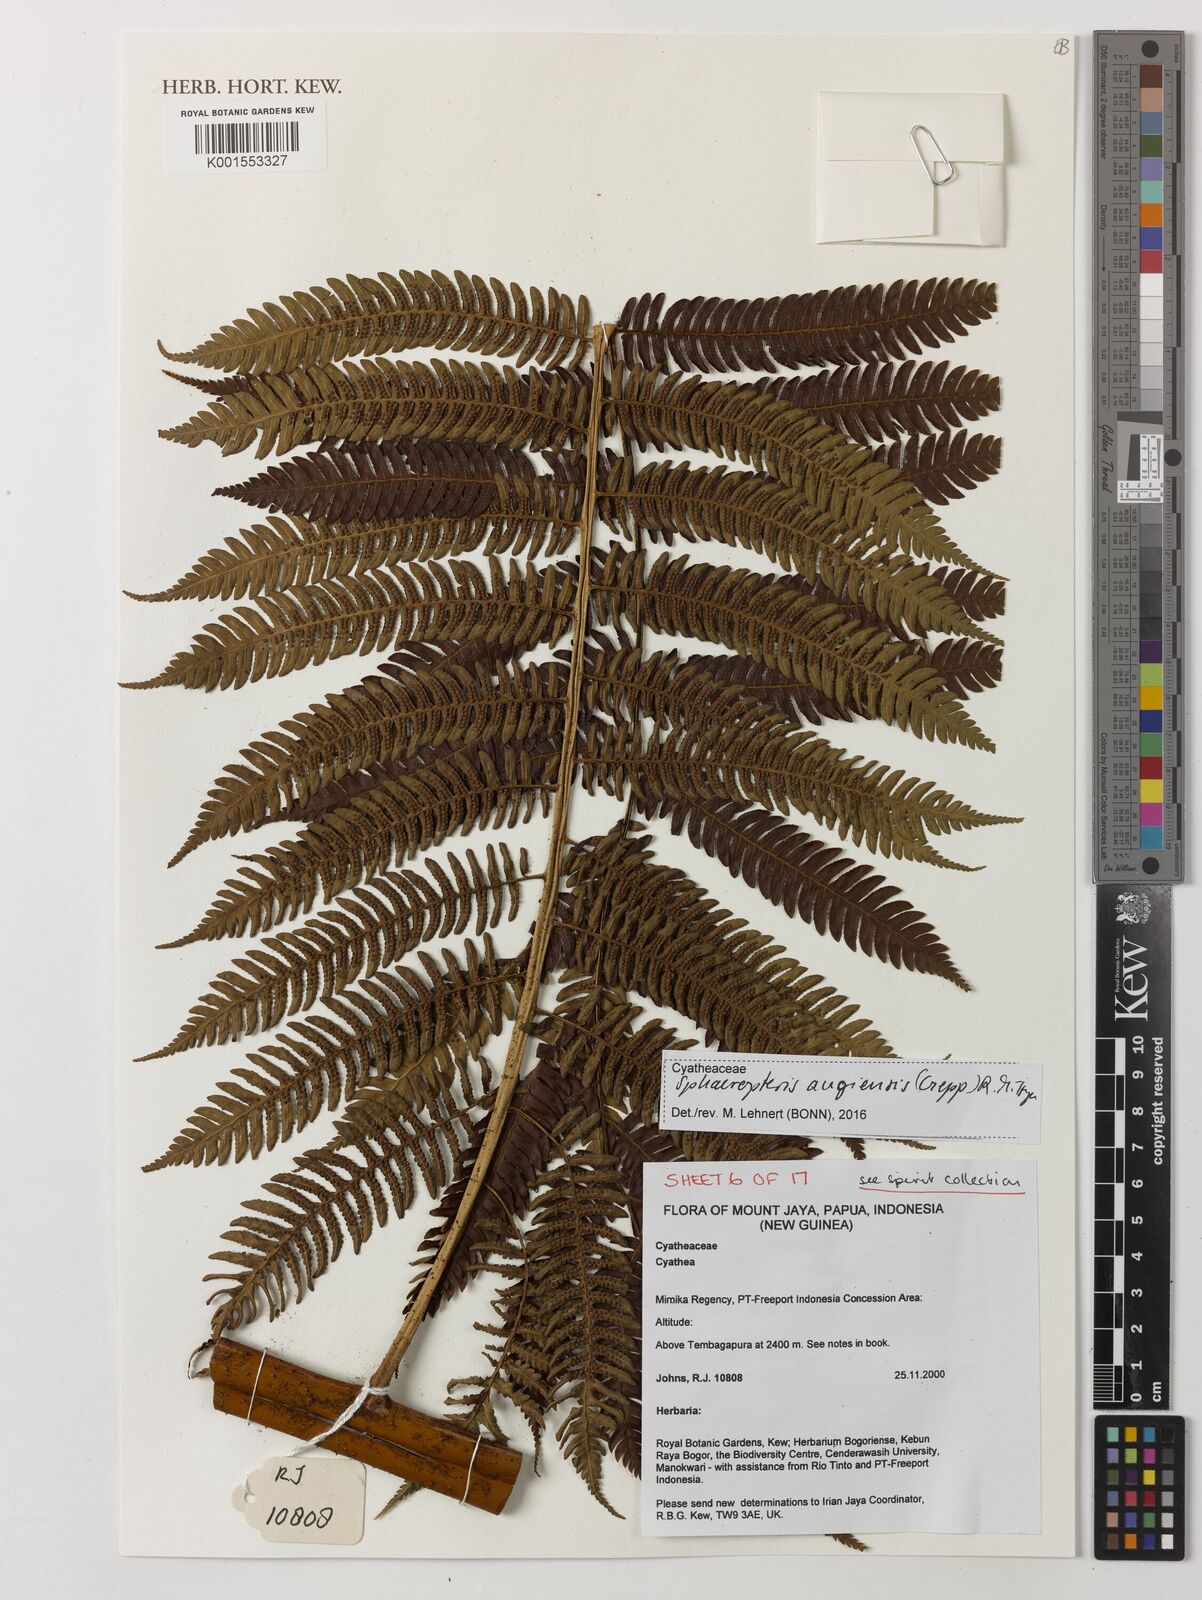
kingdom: Plantae
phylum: Tracheophyta
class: Polypodiopsida
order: Cyatheales
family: Cyatheaceae
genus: Sphaeropteris
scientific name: Sphaeropteris
